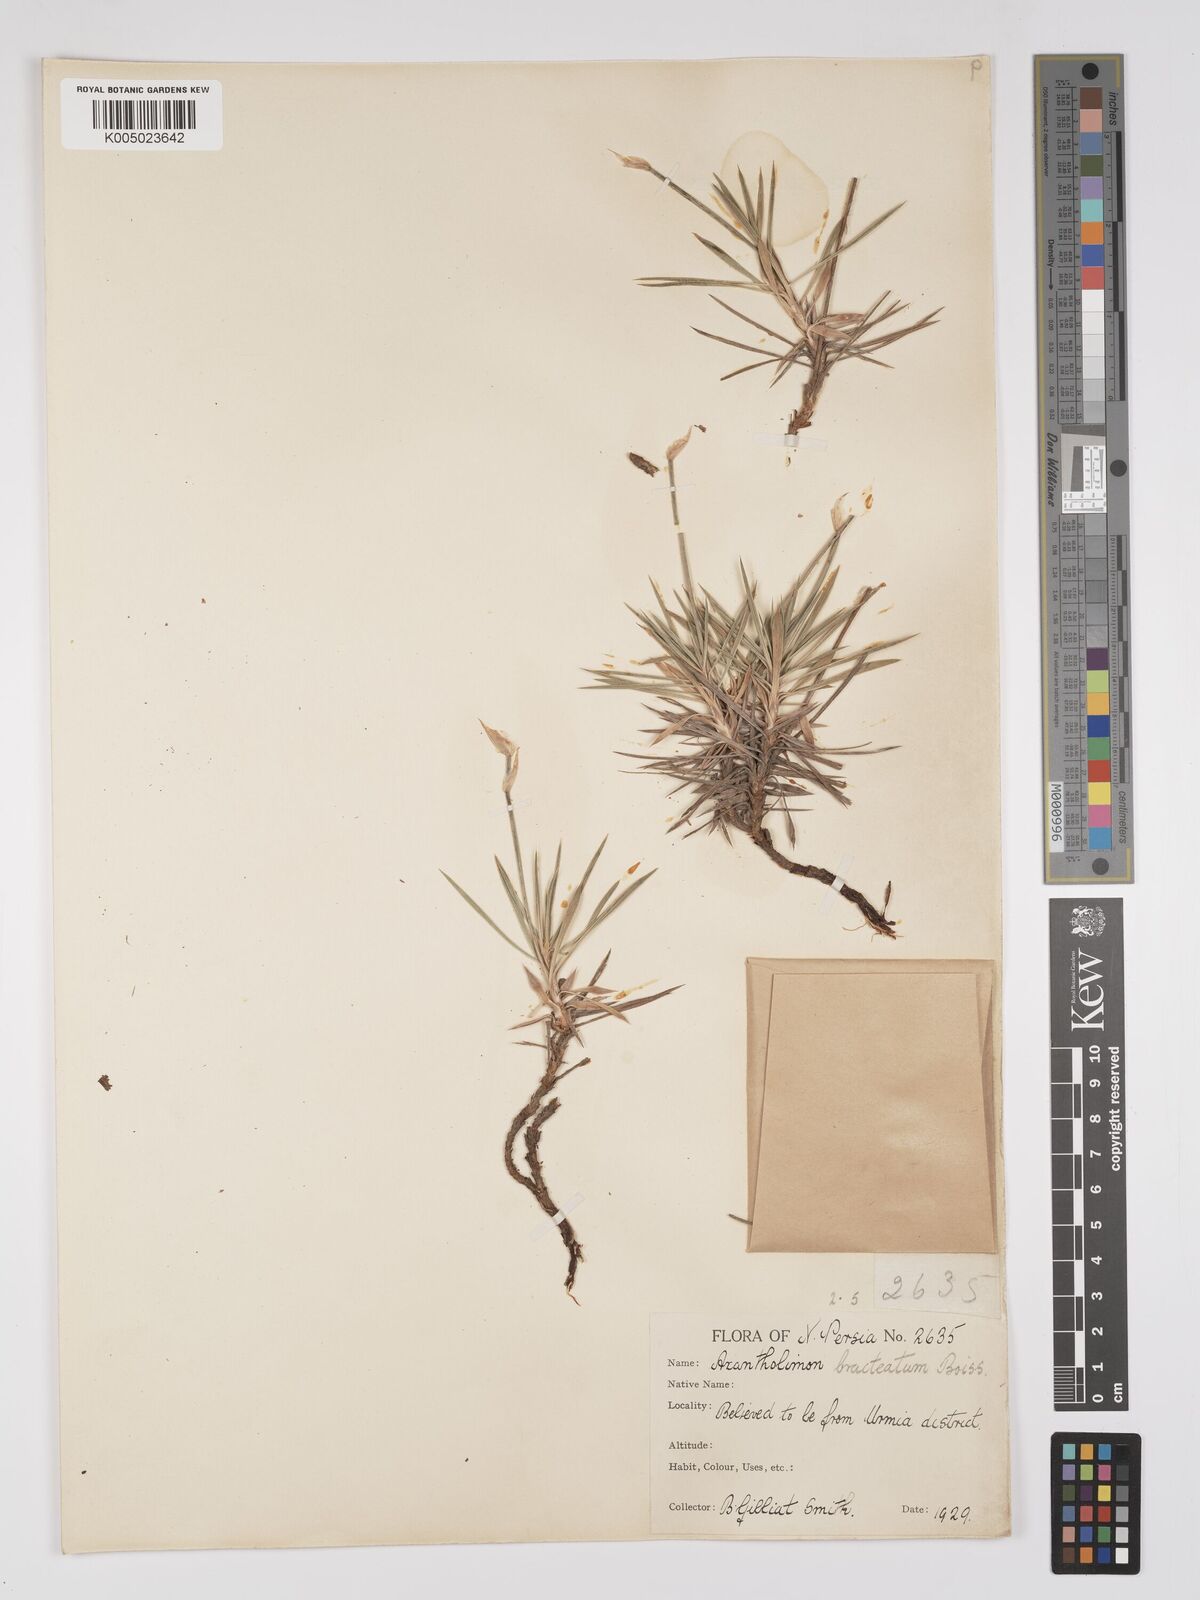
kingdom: Plantae
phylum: Tracheophyta
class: Magnoliopsida
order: Caryophyllales
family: Plumbaginaceae
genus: Acantholimon
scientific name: Acantholimon bracteatum
